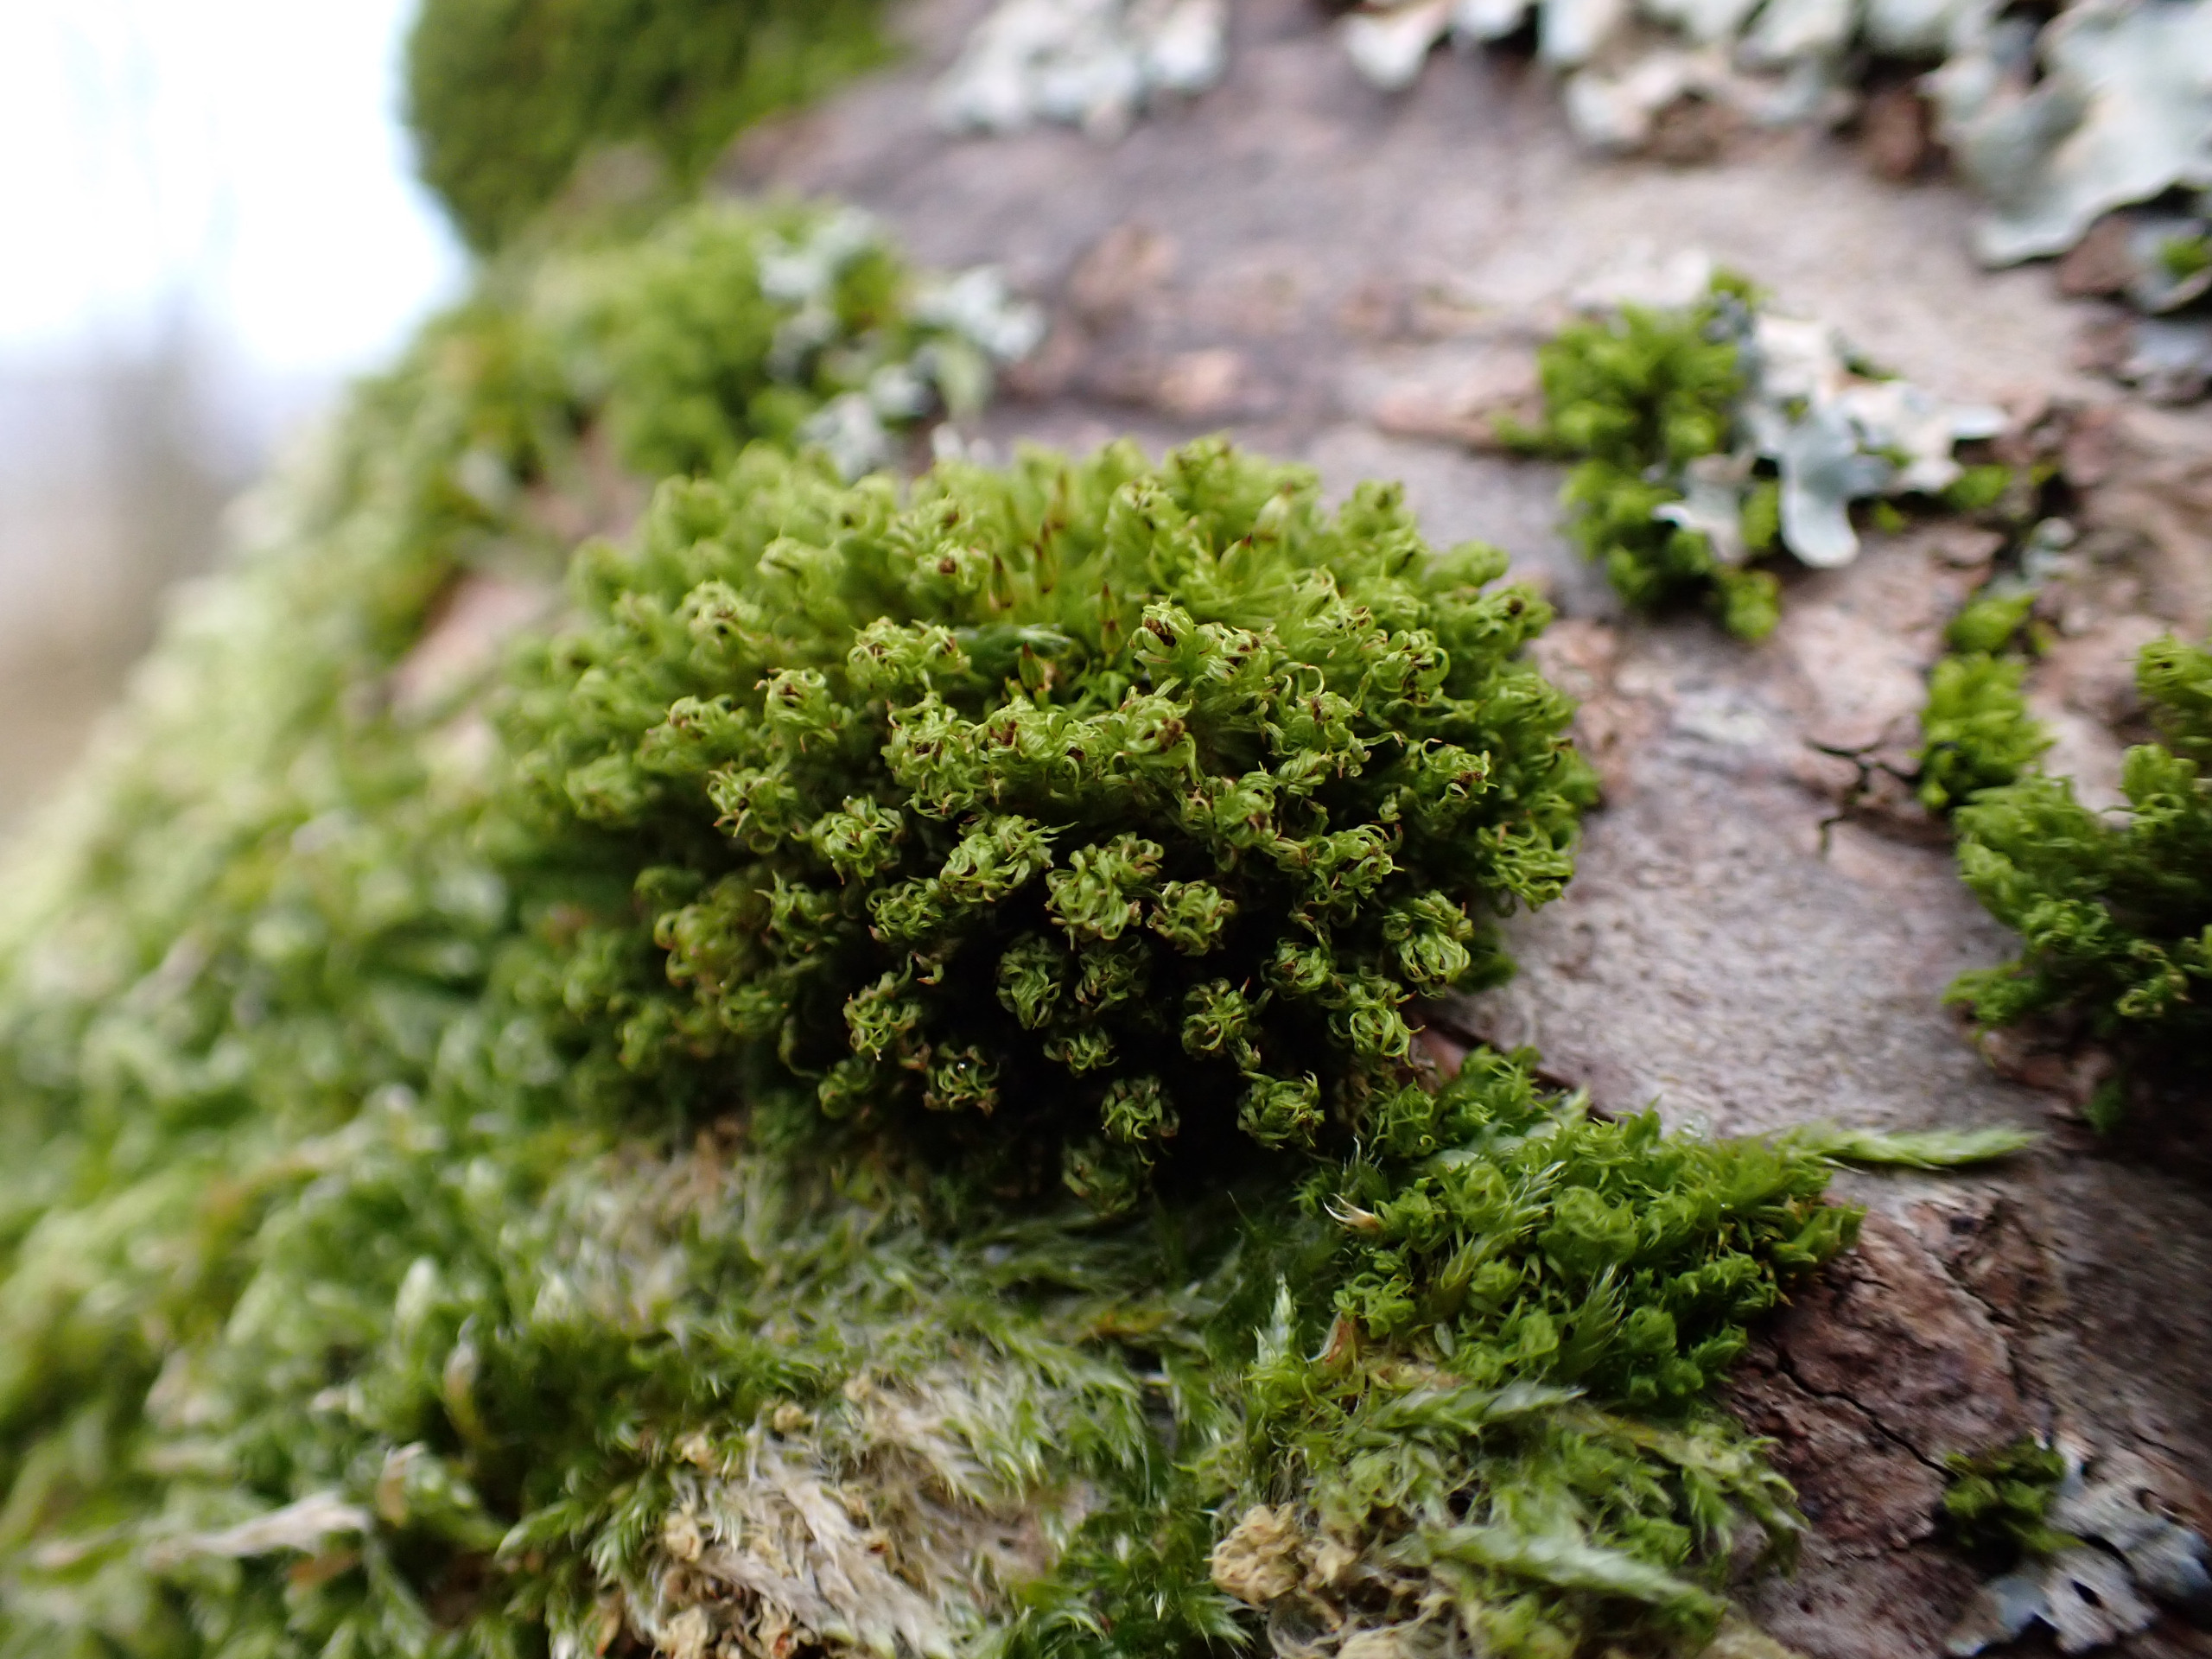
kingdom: Plantae
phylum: Bryophyta
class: Bryopsida
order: Orthotrichales
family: Orthotrichaceae
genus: Plenogemma
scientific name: Plenogemma phyllantha
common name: Stor låddenhætte
